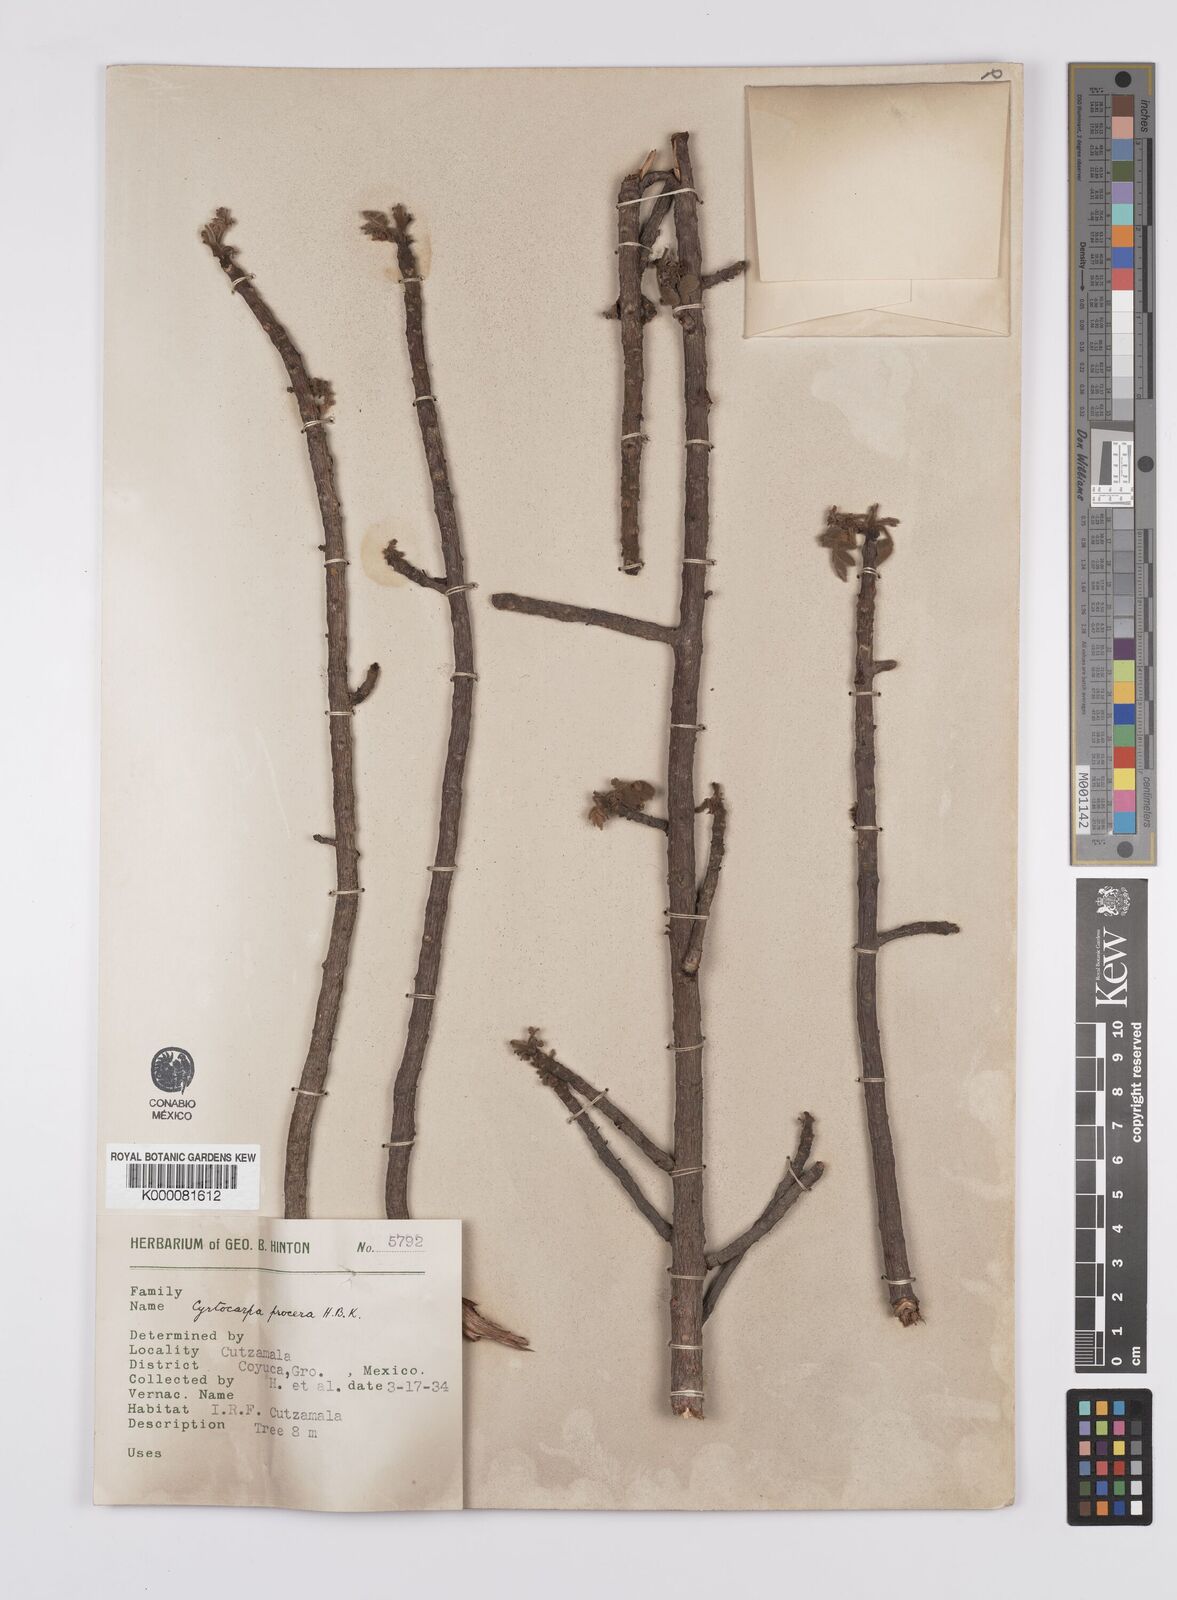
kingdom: Plantae
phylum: Tracheophyta
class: Magnoliopsida
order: Sapindales
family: Anacardiaceae
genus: Cyrtocarpa
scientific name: Cyrtocarpa procera
